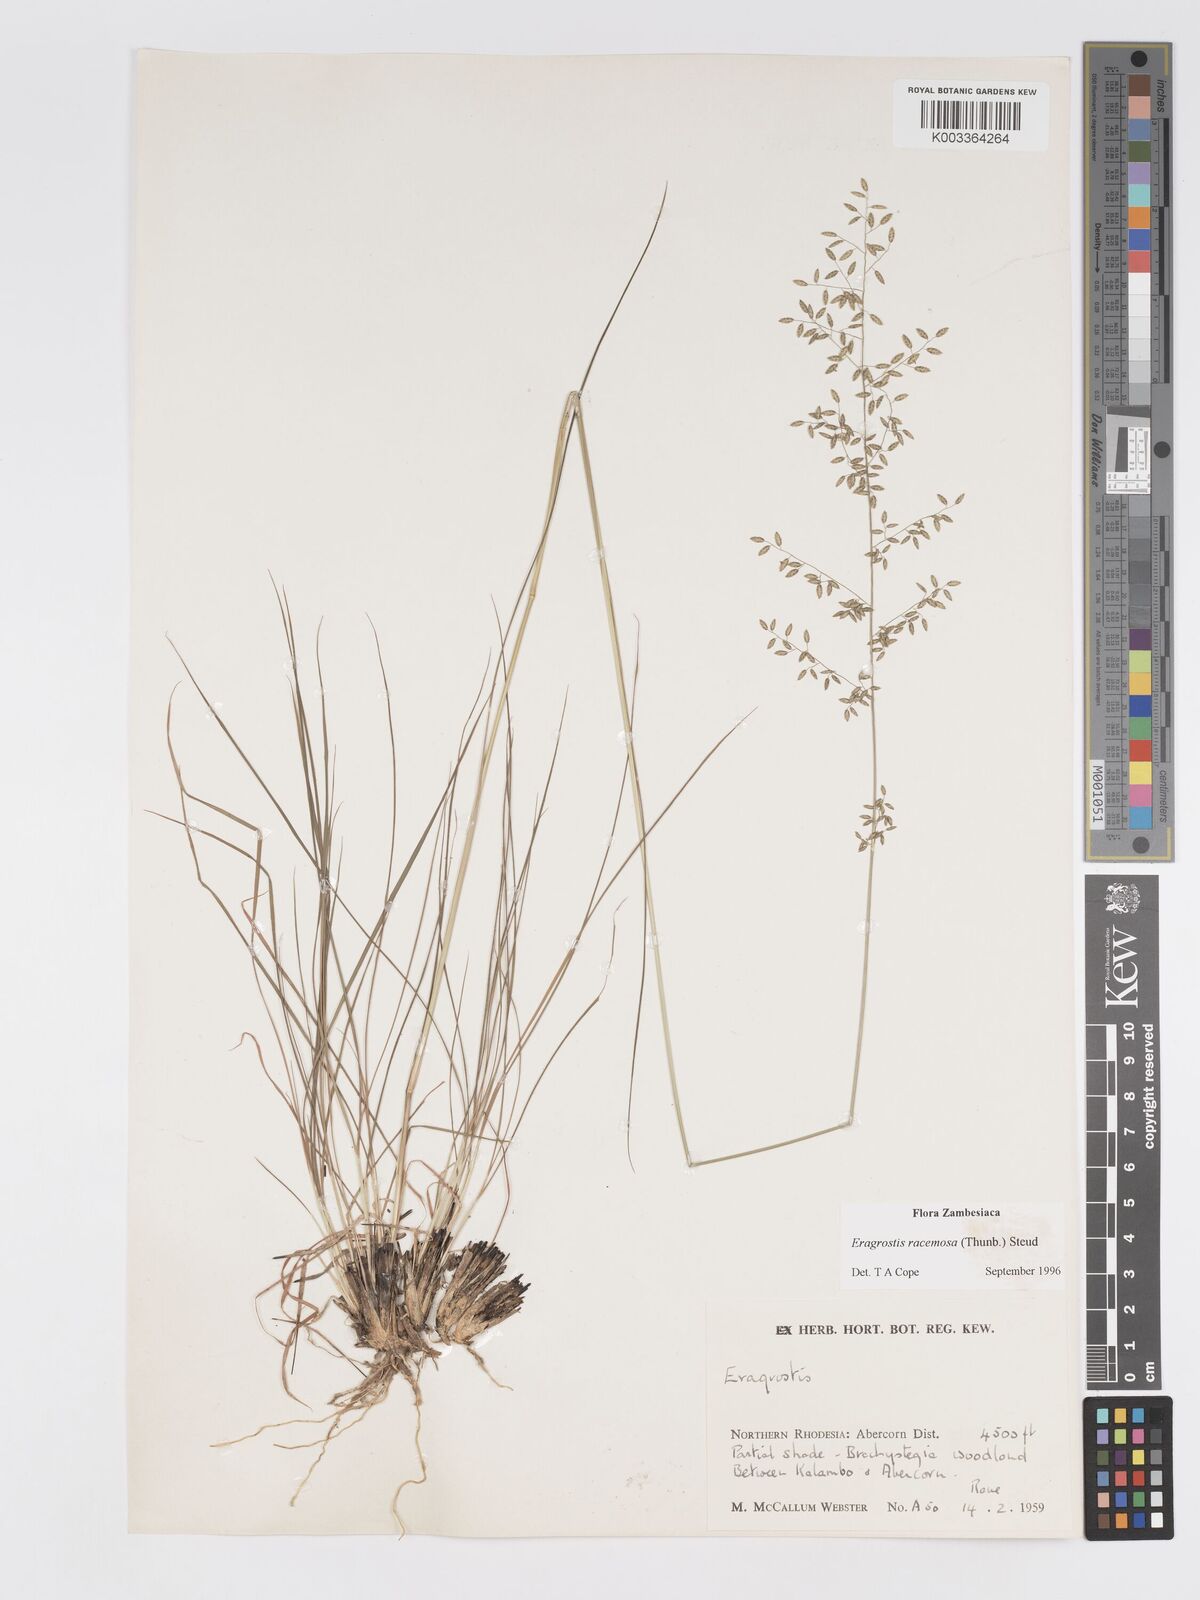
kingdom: Plantae
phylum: Tracheophyta
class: Liliopsida
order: Poales
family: Poaceae
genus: Eragrostis
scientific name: Eragrostis racemosa
